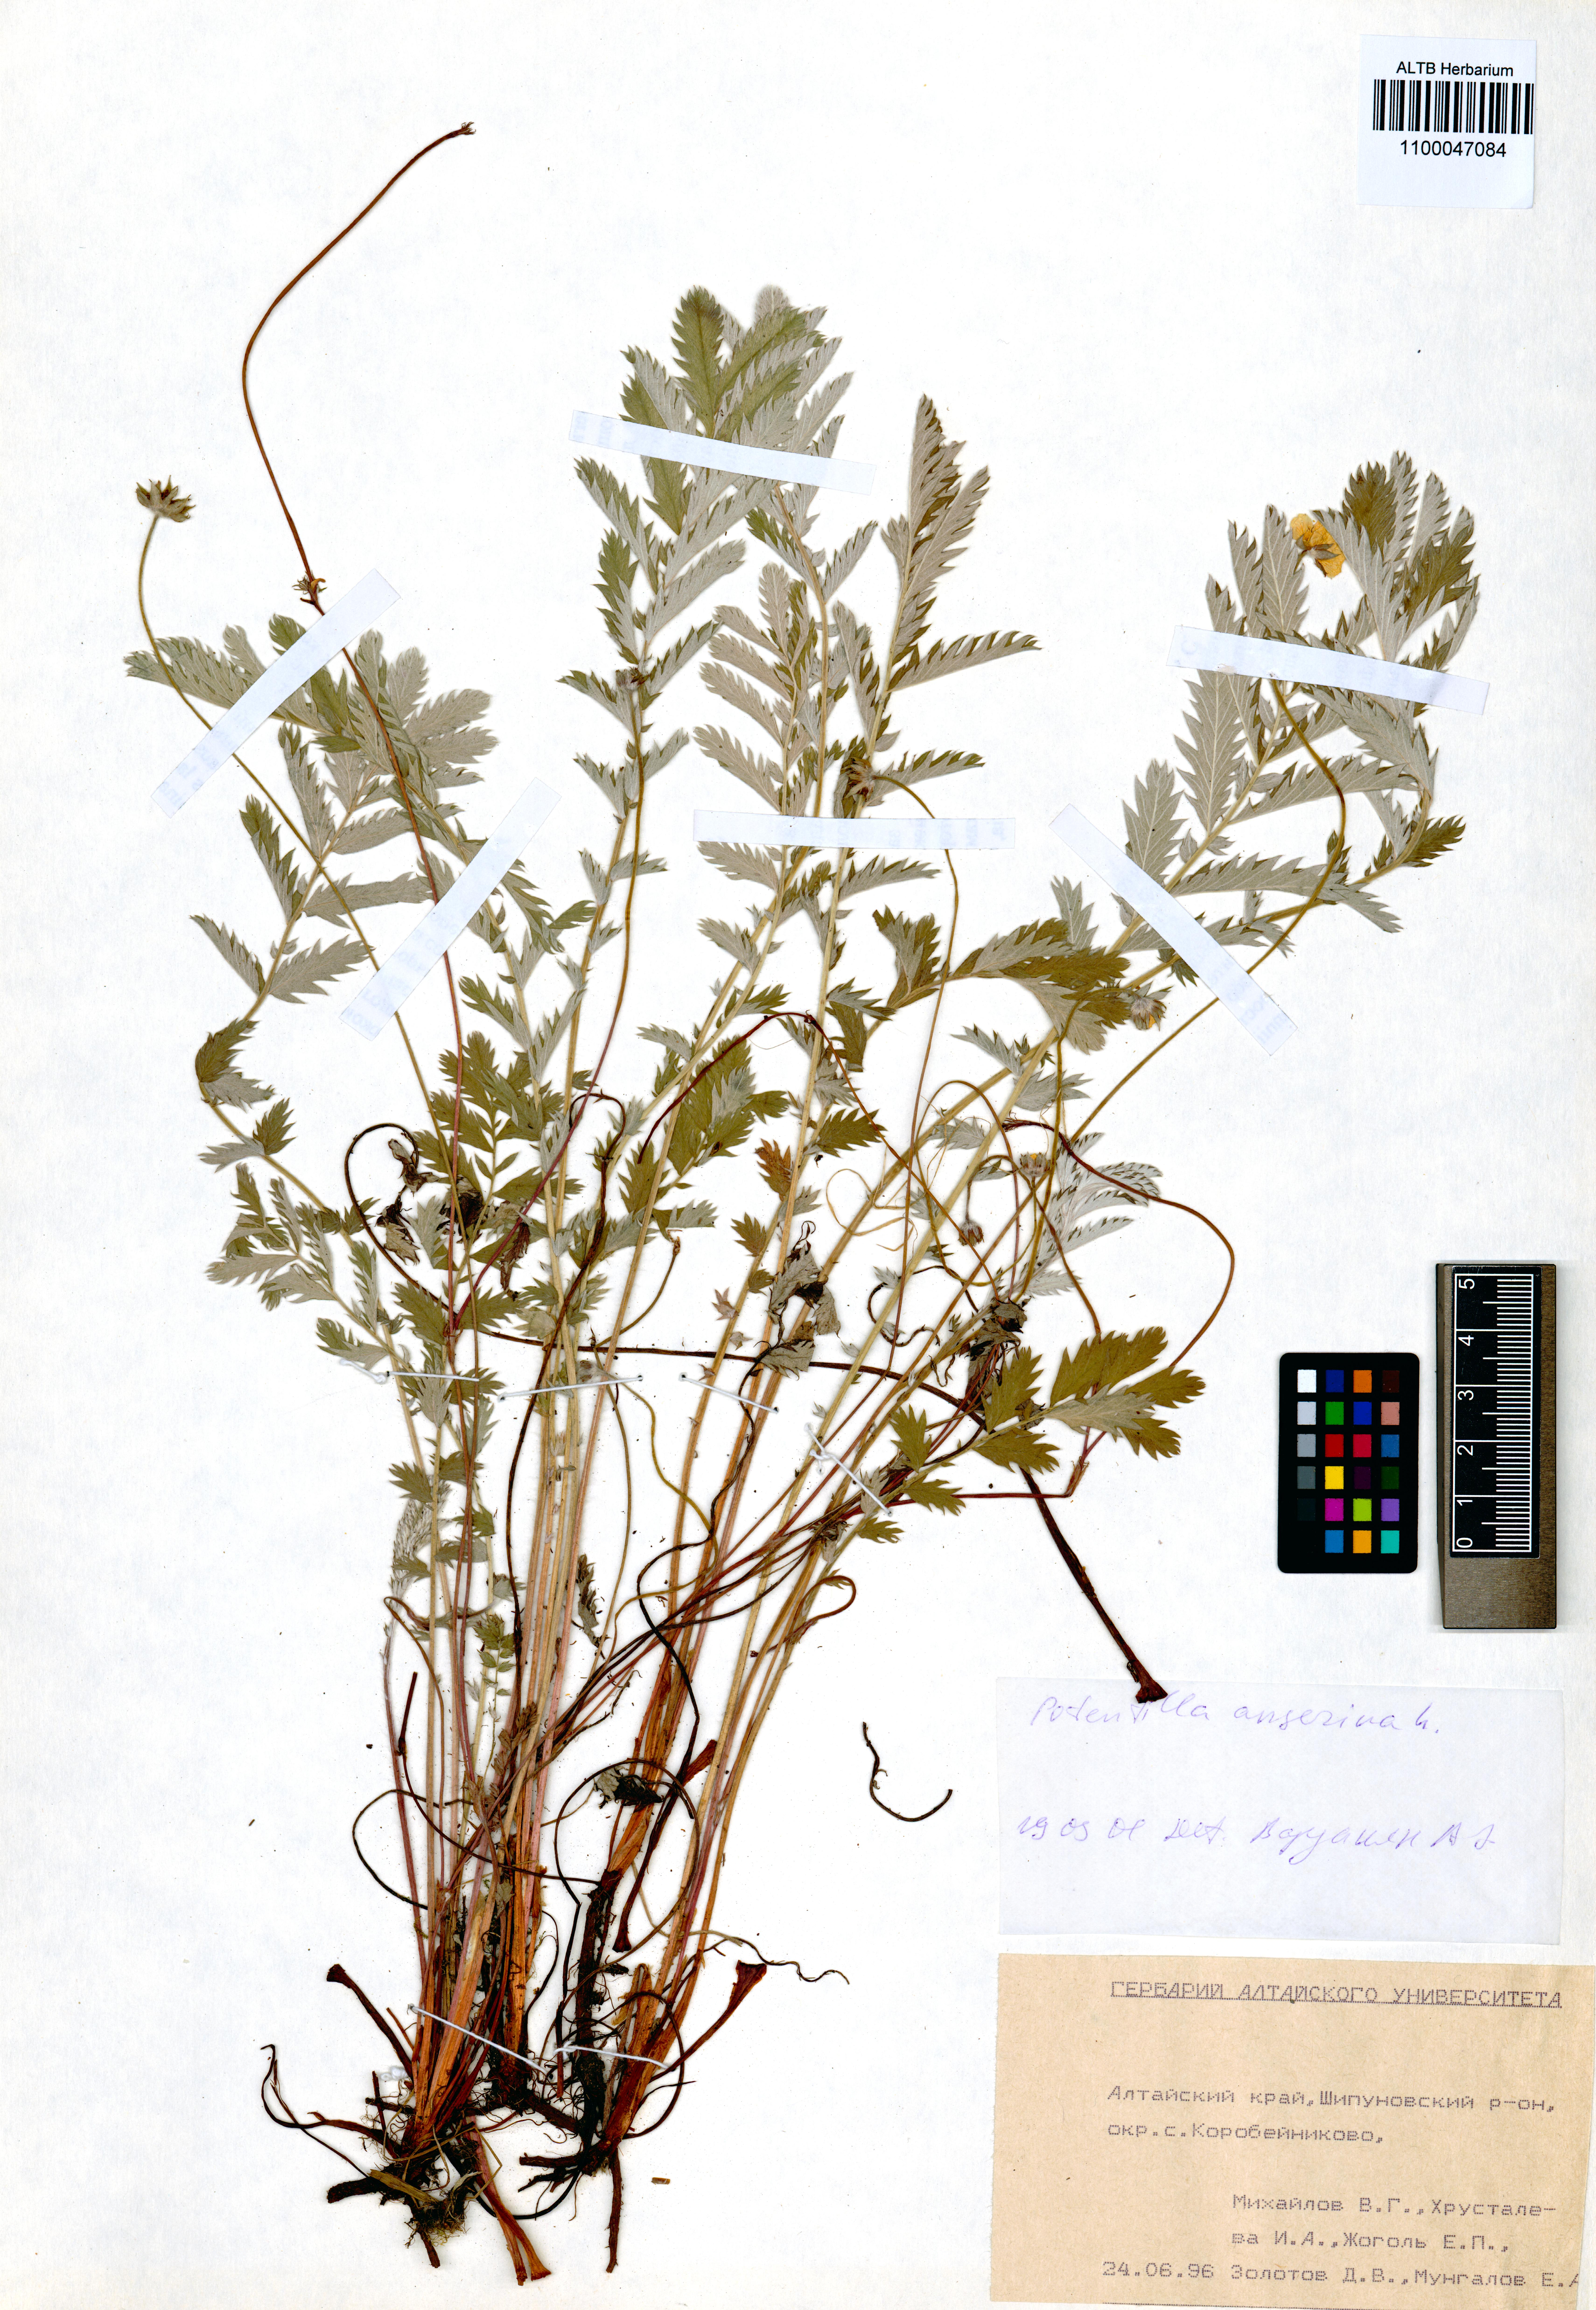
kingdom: Plantae
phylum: Tracheophyta
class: Magnoliopsida
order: Rosales
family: Rosaceae
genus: Argentina
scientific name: Argentina anserina
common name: Common silverweed
